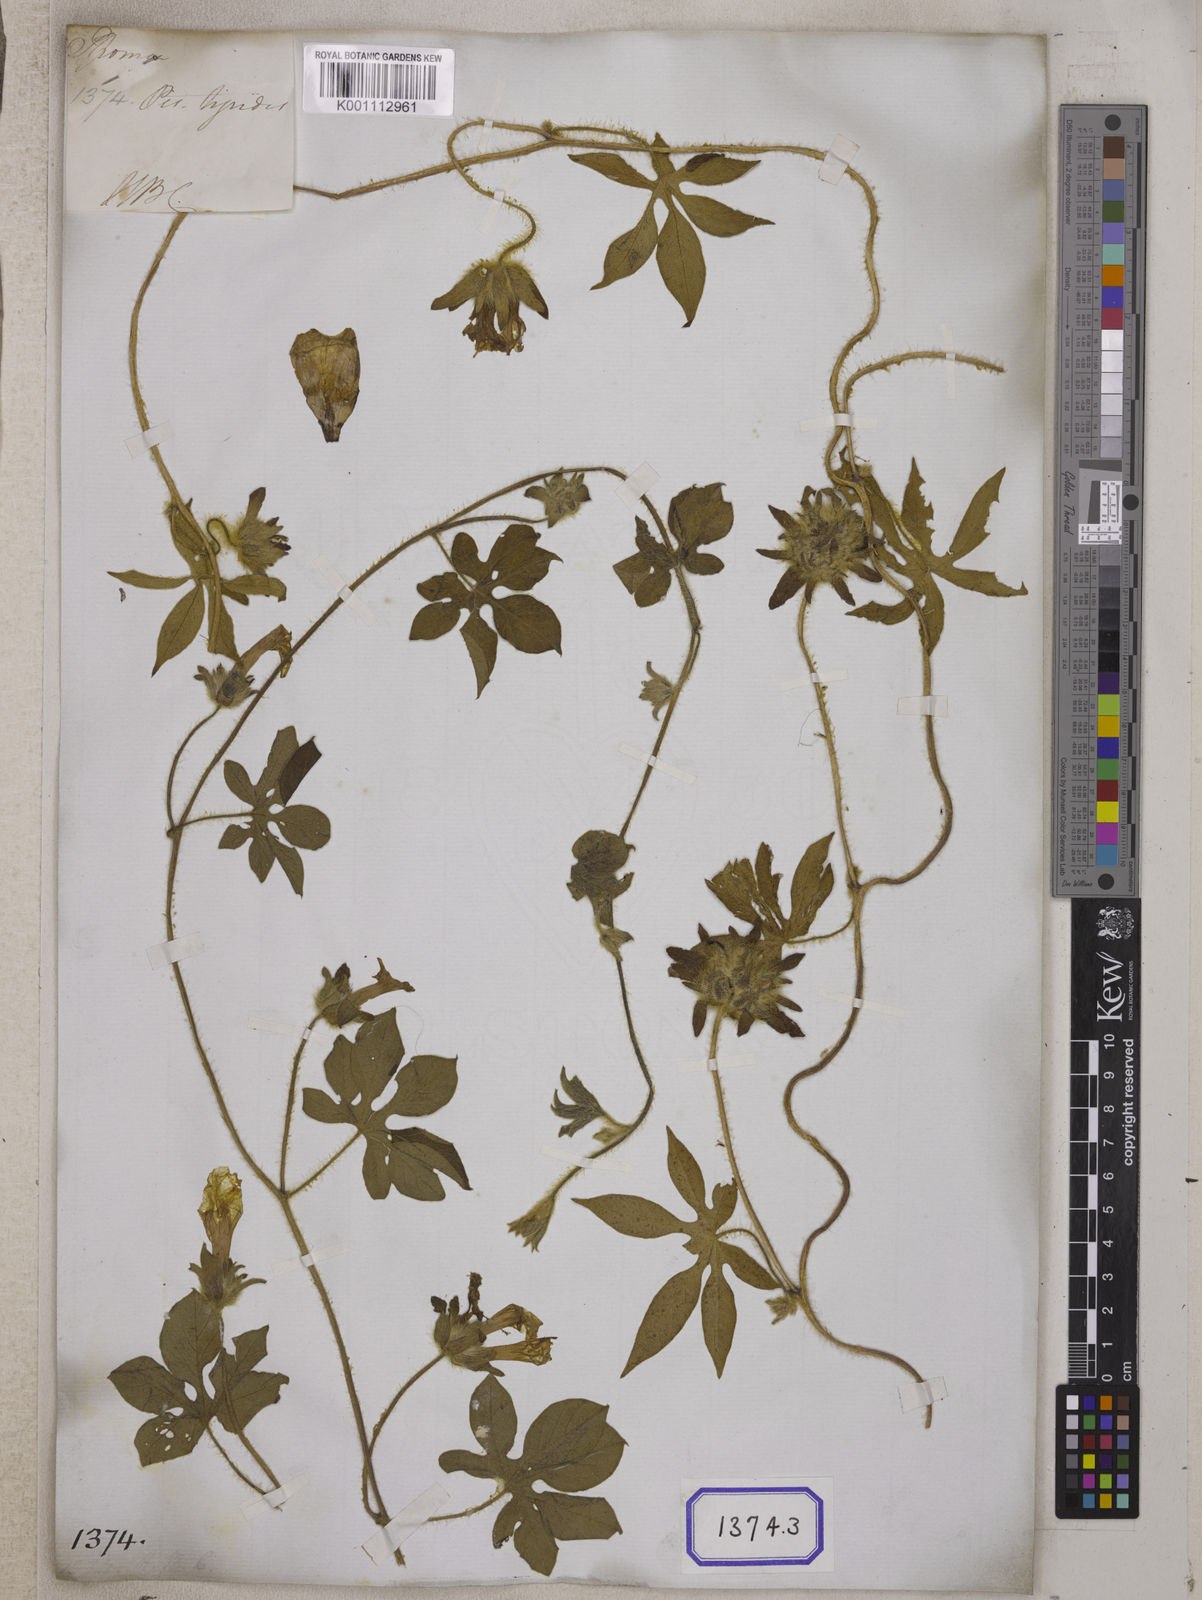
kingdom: Plantae
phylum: Tracheophyta
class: Magnoliopsida
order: Solanales
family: Convolvulaceae
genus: Ipomoea
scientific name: Ipomoea pes-tigridis
